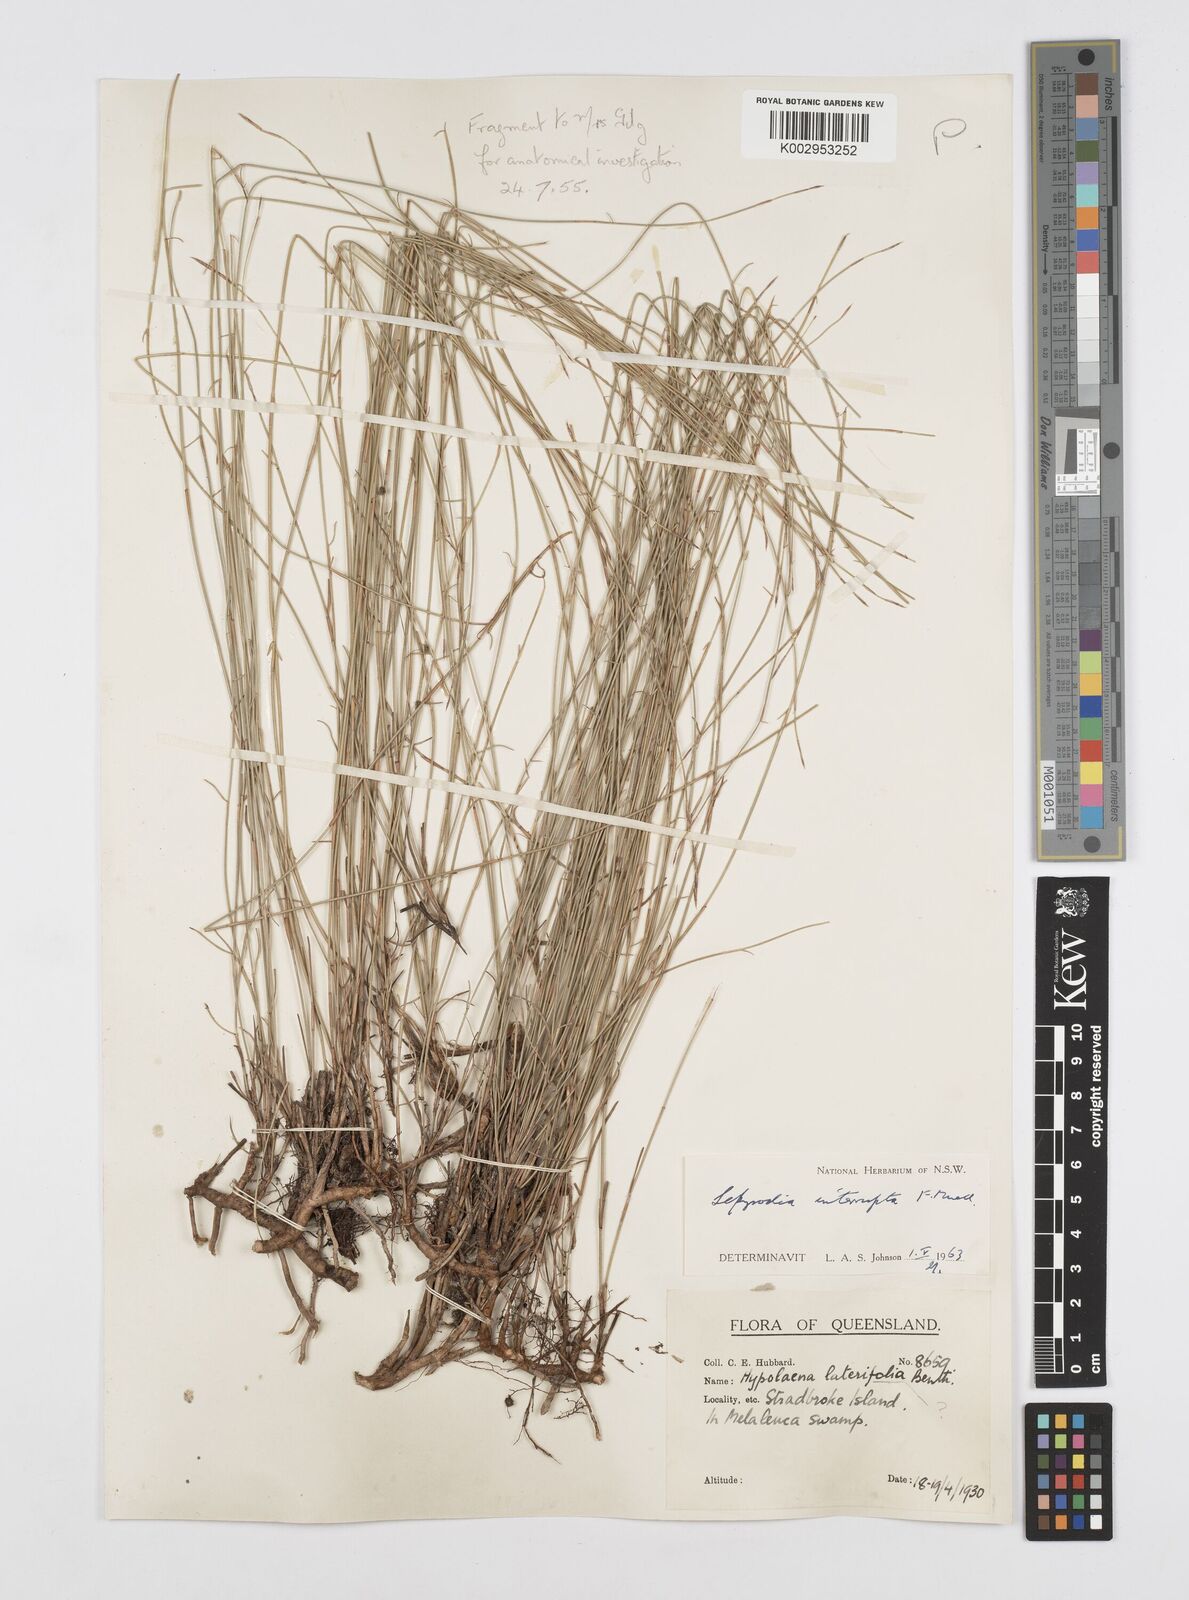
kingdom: Plantae
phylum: Tracheophyta
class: Liliopsida
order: Poales
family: Restionaceae
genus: Sporadanthus
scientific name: Sporadanthus interruptus
